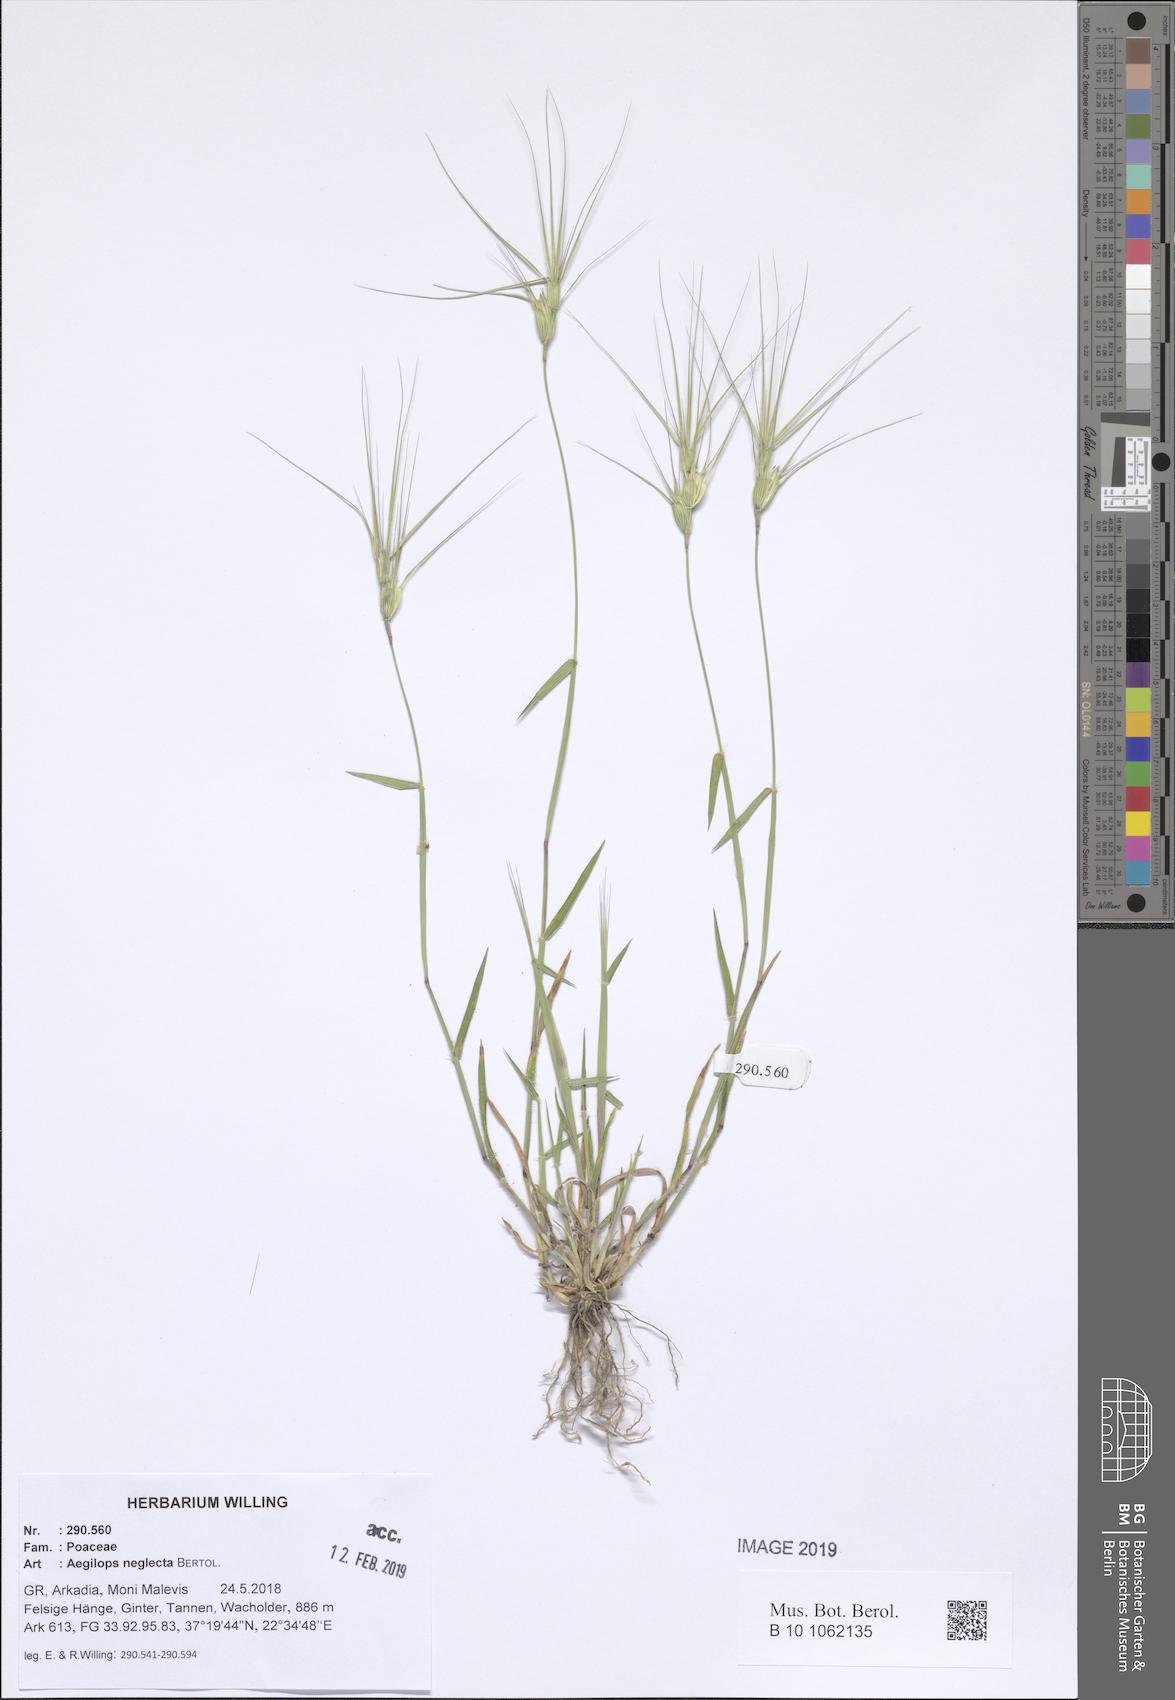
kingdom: Plantae
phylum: Tracheophyta
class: Liliopsida
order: Poales
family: Poaceae
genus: Aegilops
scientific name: Aegilops neglecta
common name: Three-awn goat grass
